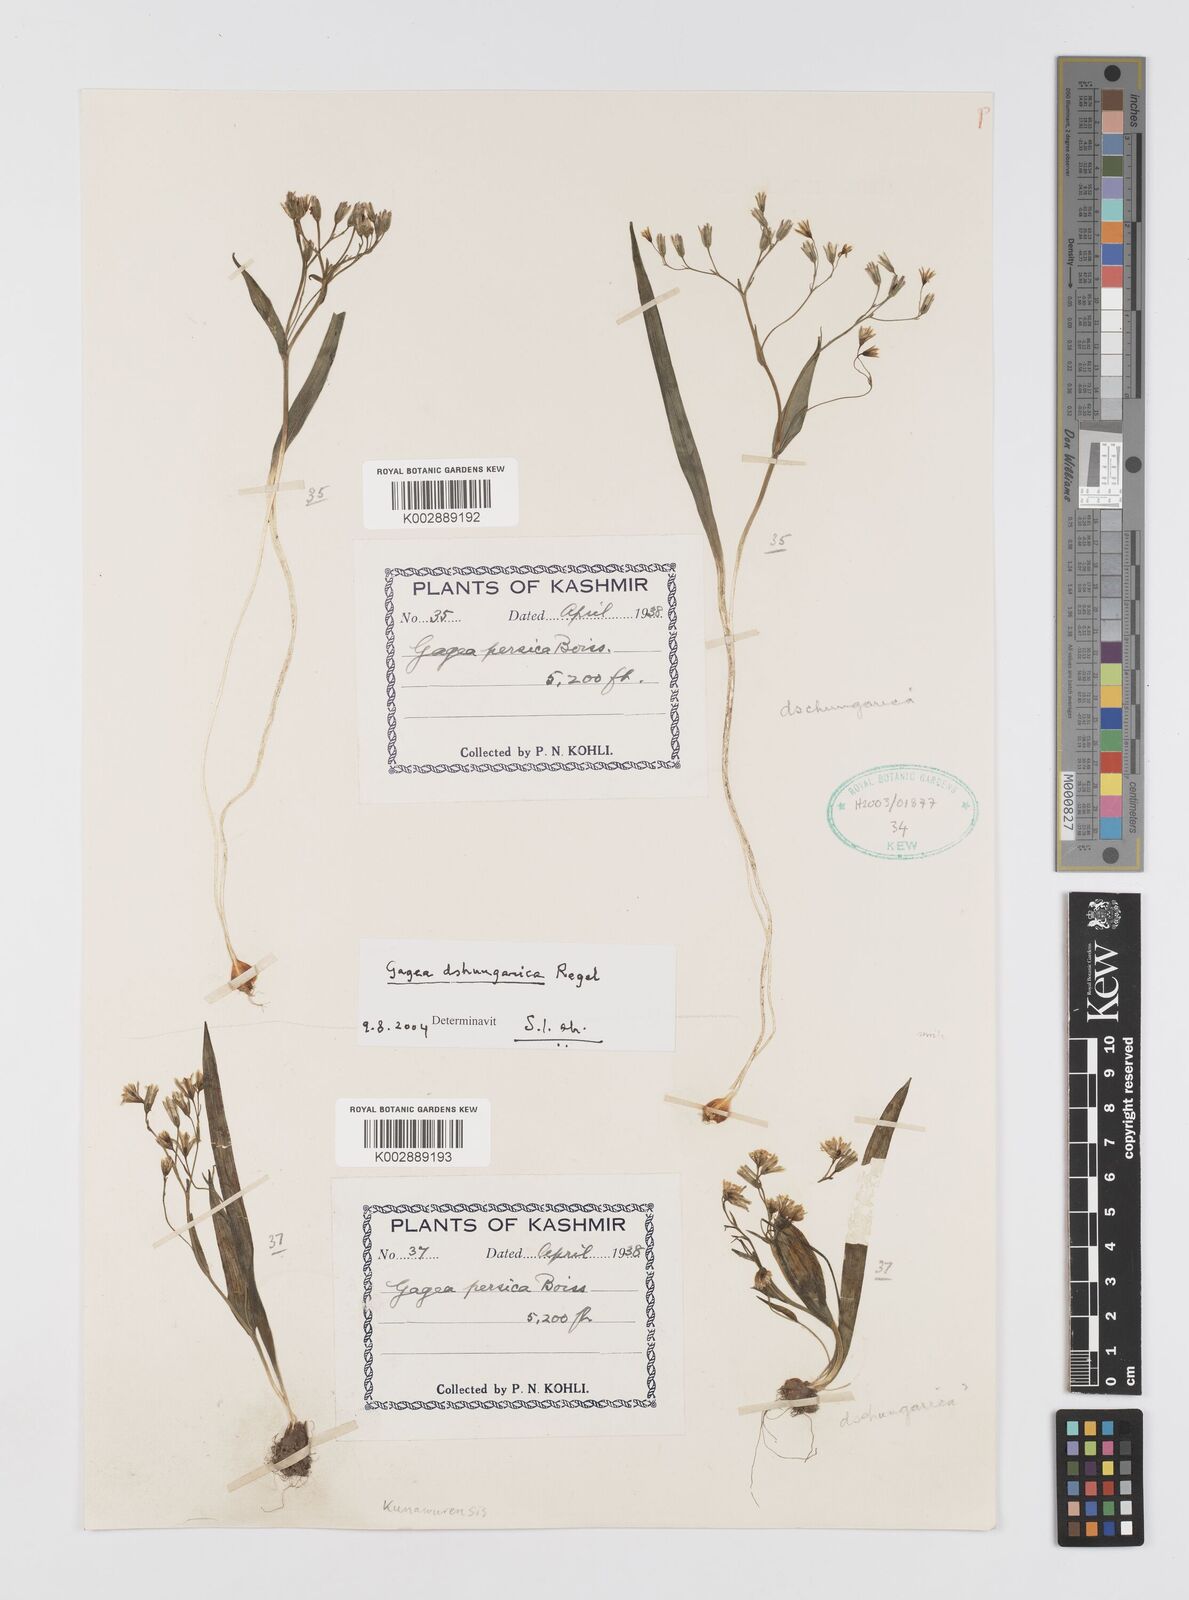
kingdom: Plantae
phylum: Tracheophyta
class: Liliopsida
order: Liliales
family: Liliaceae
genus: Gagea
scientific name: Gagea dschungarica
